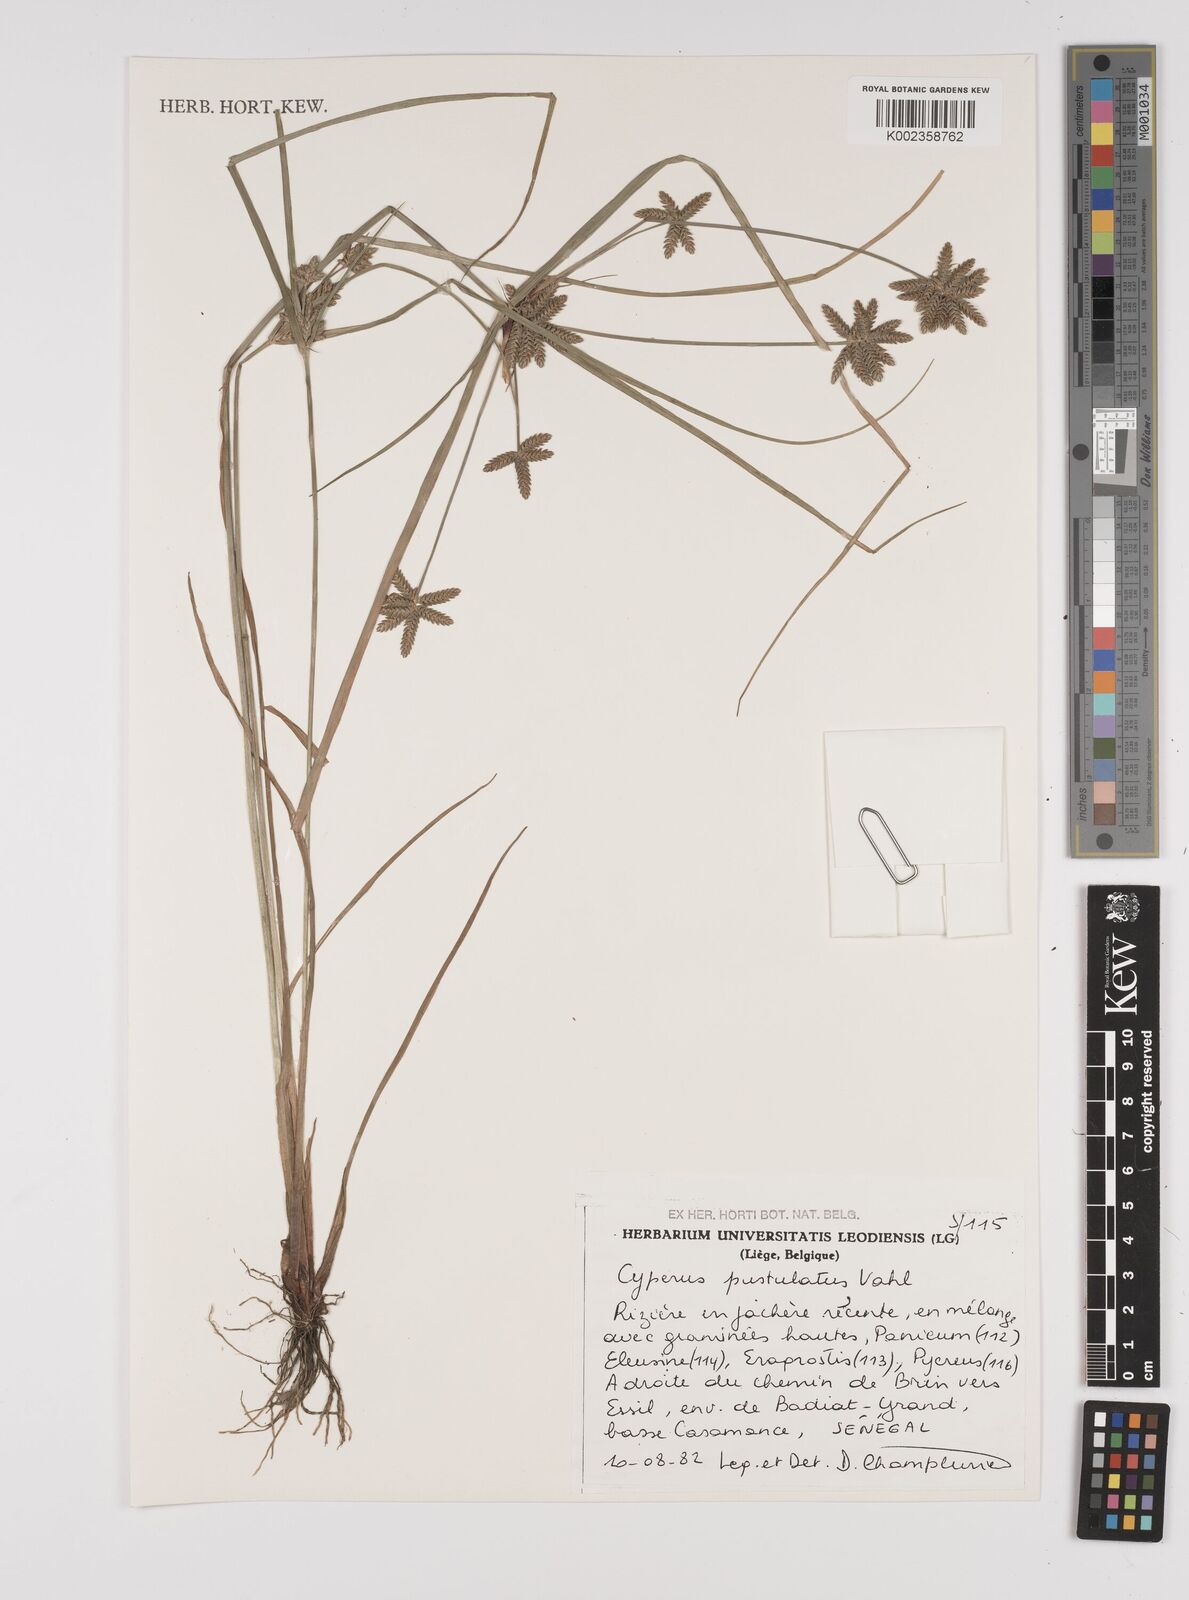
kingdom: Plantae
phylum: Tracheophyta
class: Liliopsida
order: Poales
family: Cyperaceae
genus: Cyperus
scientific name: Cyperus pustulatus
